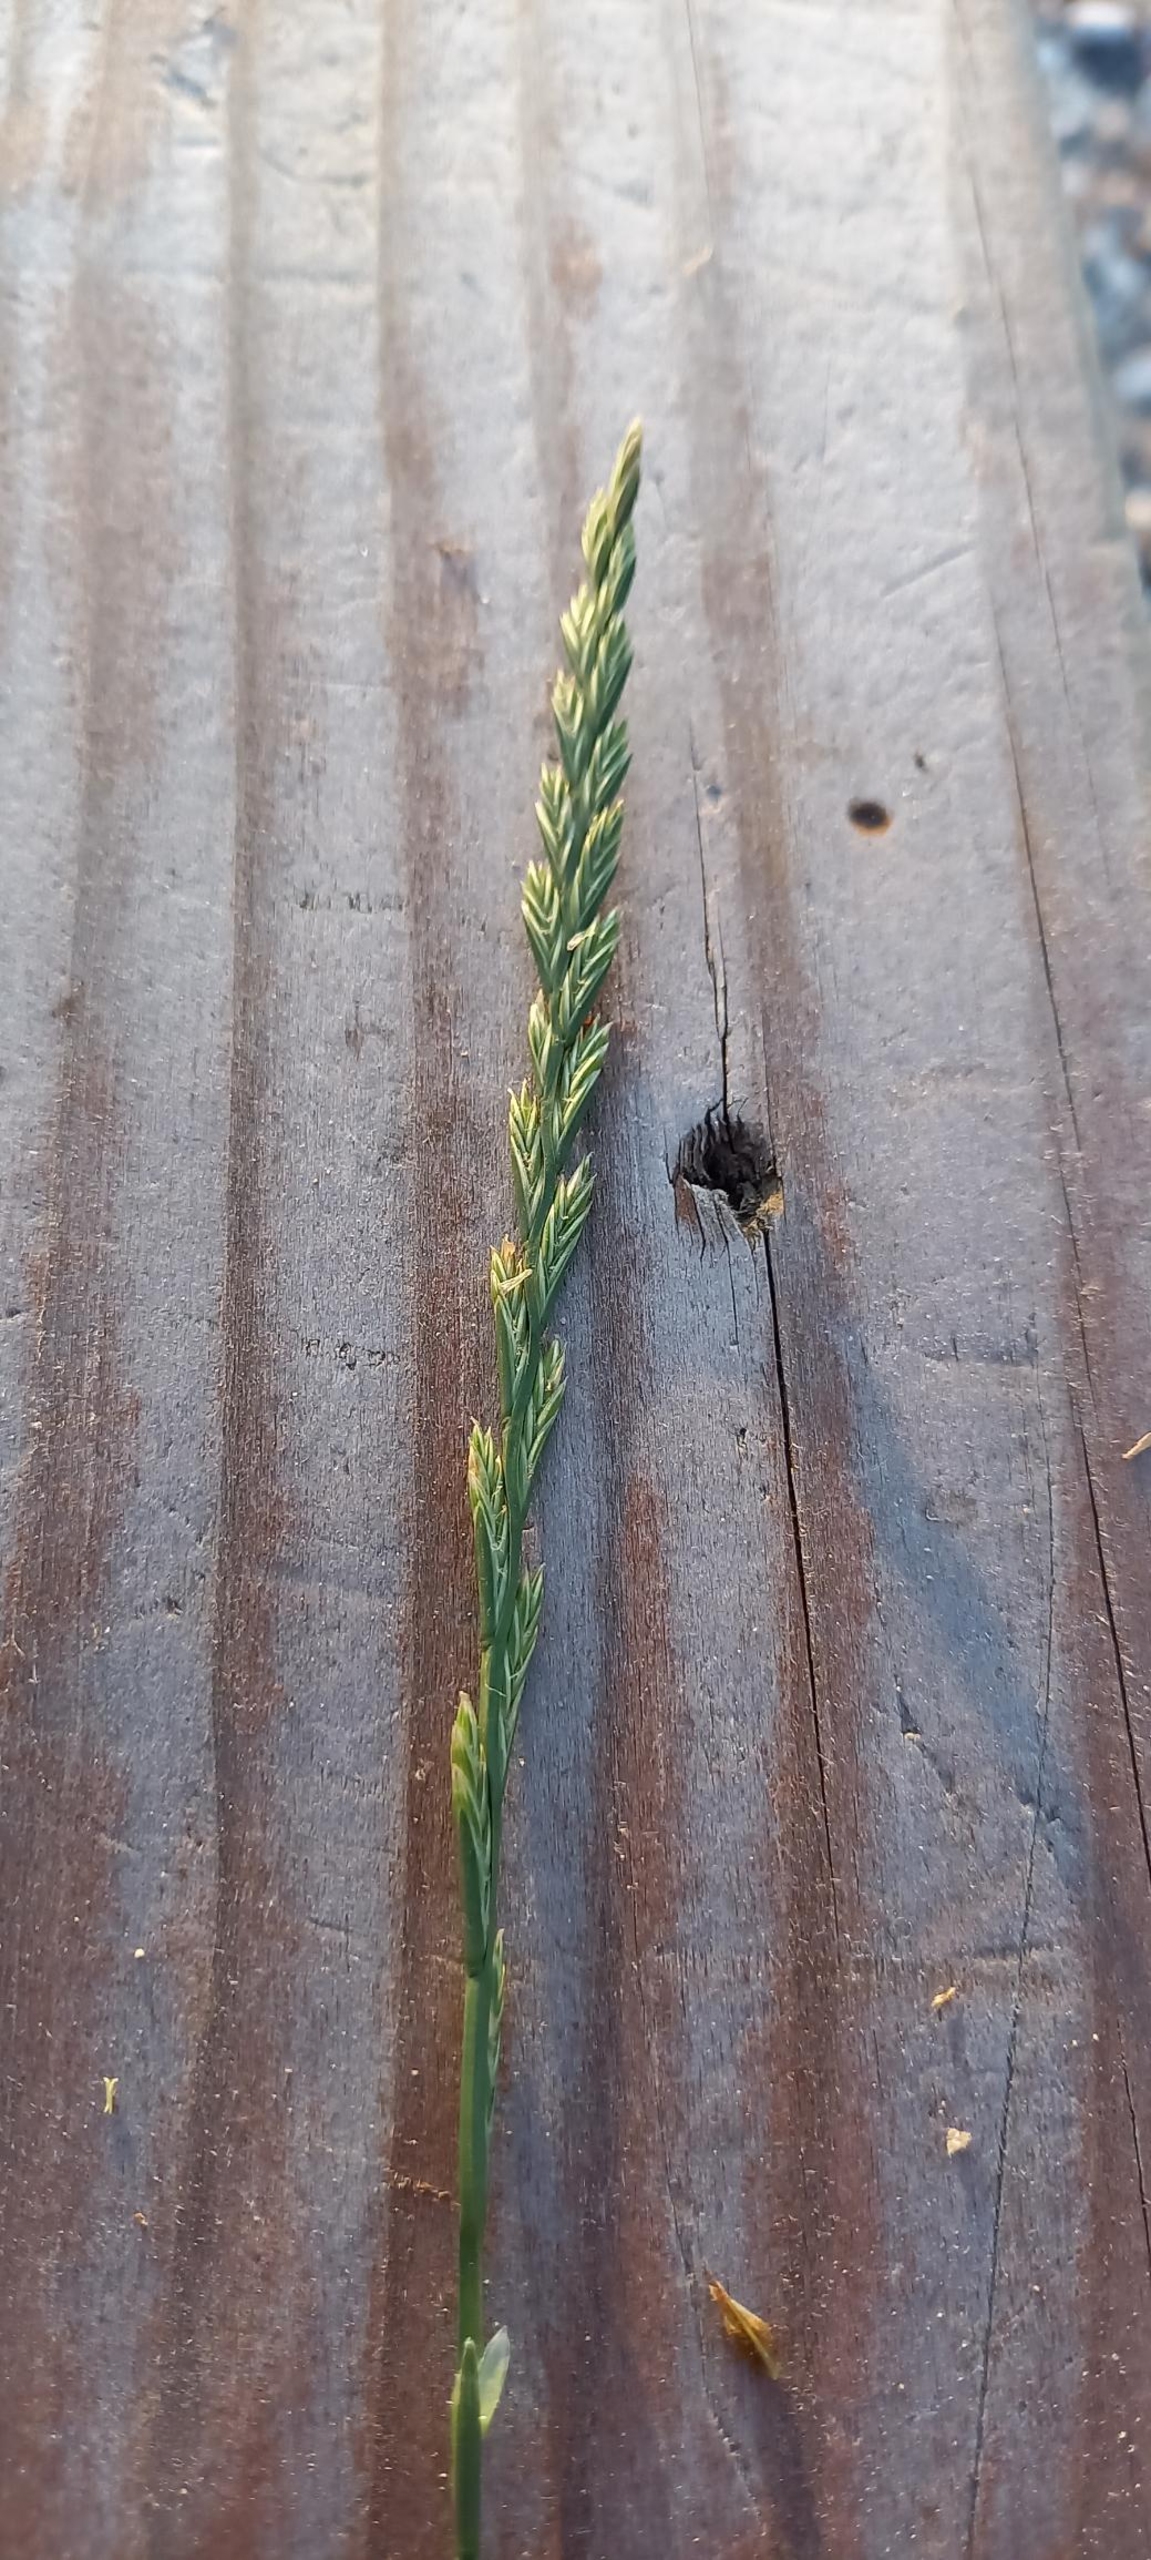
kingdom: Plantae
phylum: Tracheophyta
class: Liliopsida
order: Poales
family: Poaceae
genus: Lolium
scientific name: Lolium perenne
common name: Almindelig rajgræs
